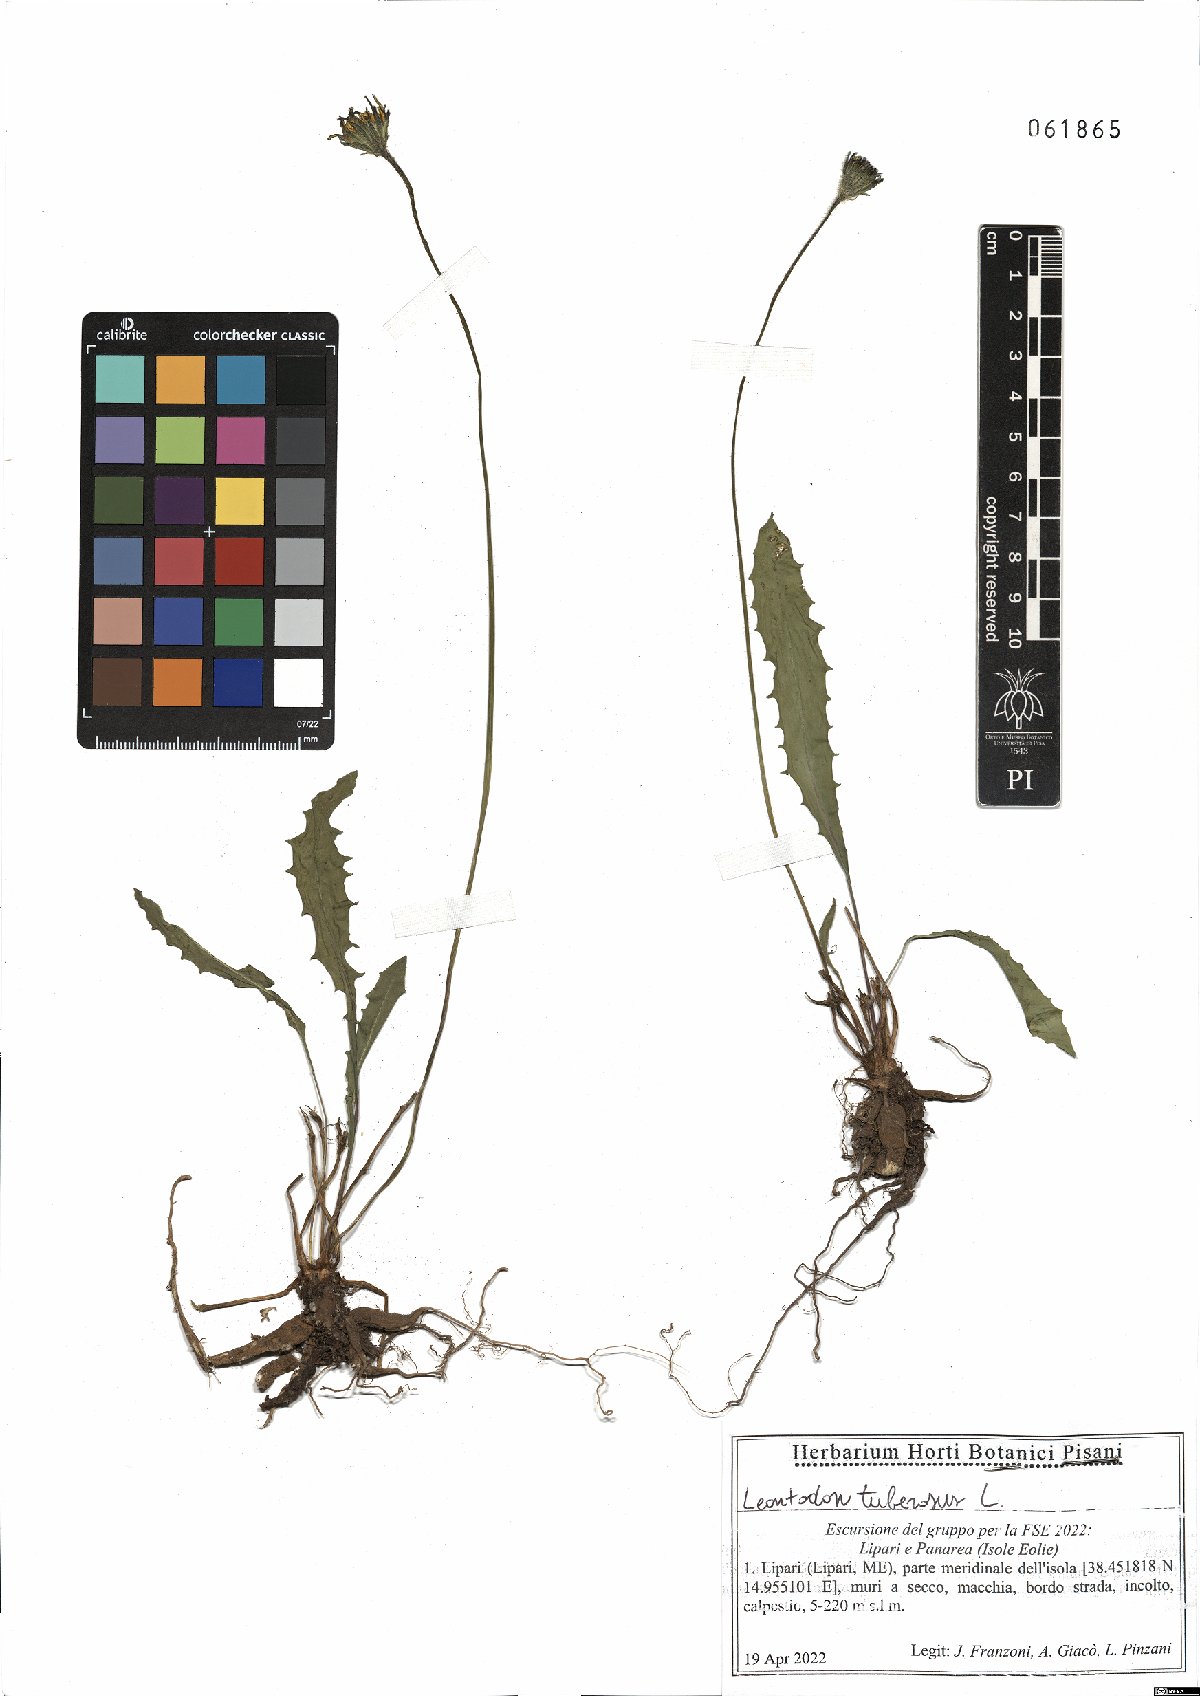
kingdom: Plantae
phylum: Tracheophyta
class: Magnoliopsida
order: Asterales
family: Asteraceae
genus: Thrincia
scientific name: Thrincia tuberosa
